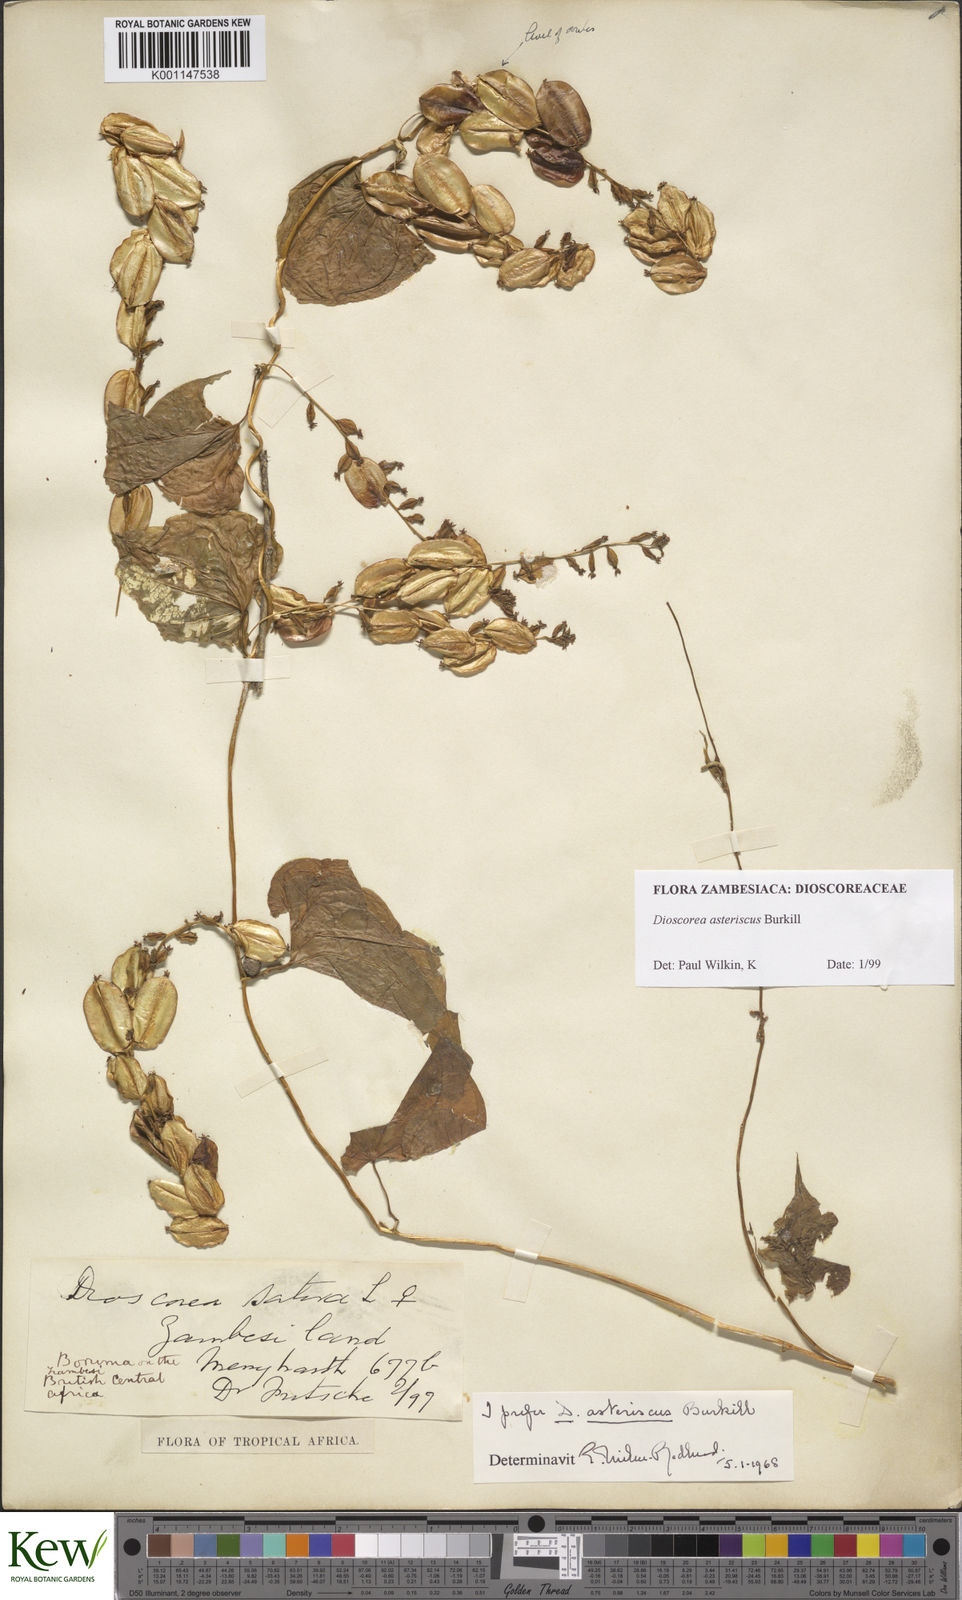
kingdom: Plantae
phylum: Tracheophyta
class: Liliopsida
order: Dioscoreales
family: Dioscoreaceae
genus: Dioscorea
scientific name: Dioscorea asteriscus
